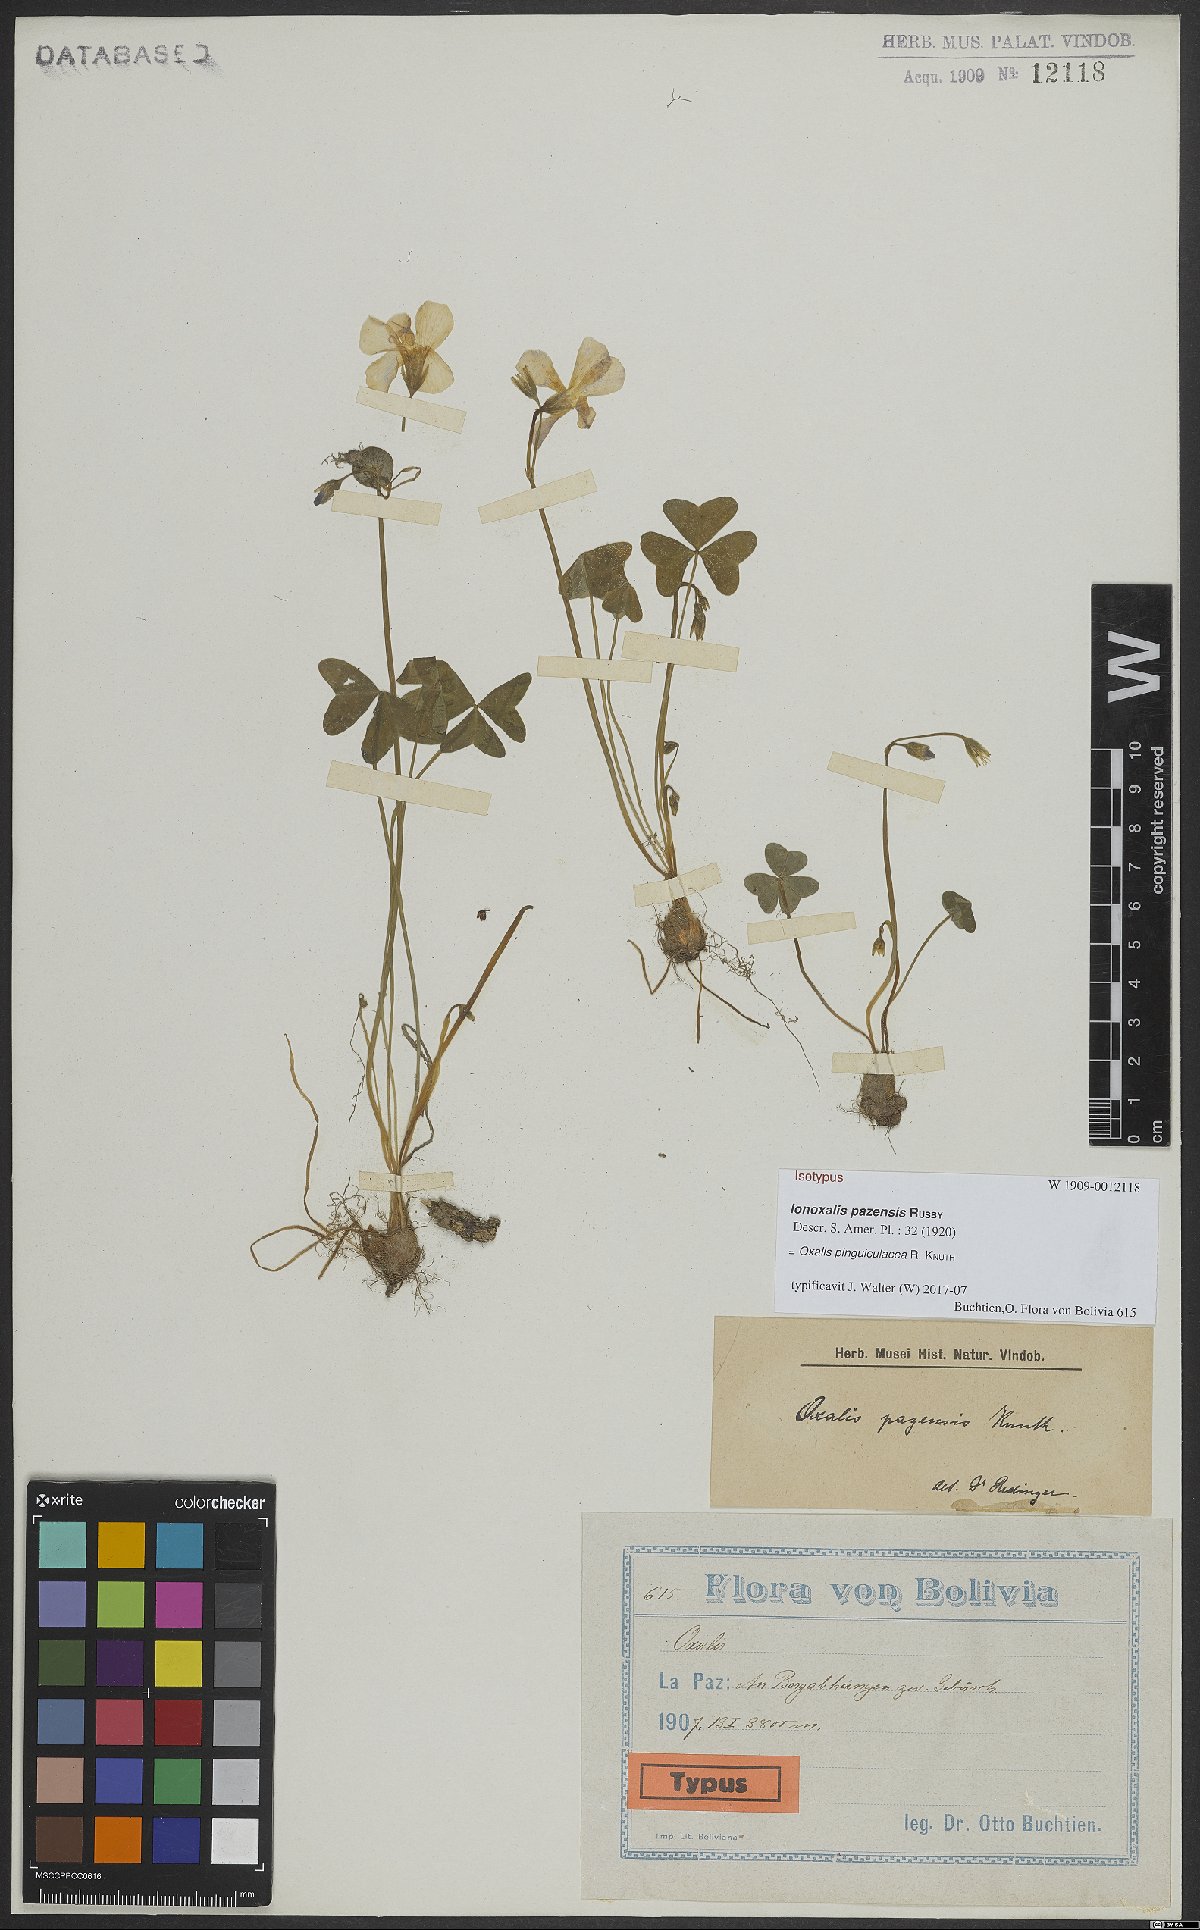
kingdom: Plantae
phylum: Tracheophyta
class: Magnoliopsida
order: Oxalidales
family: Oxalidaceae
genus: Oxalis
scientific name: Oxalis pinguiculacea
